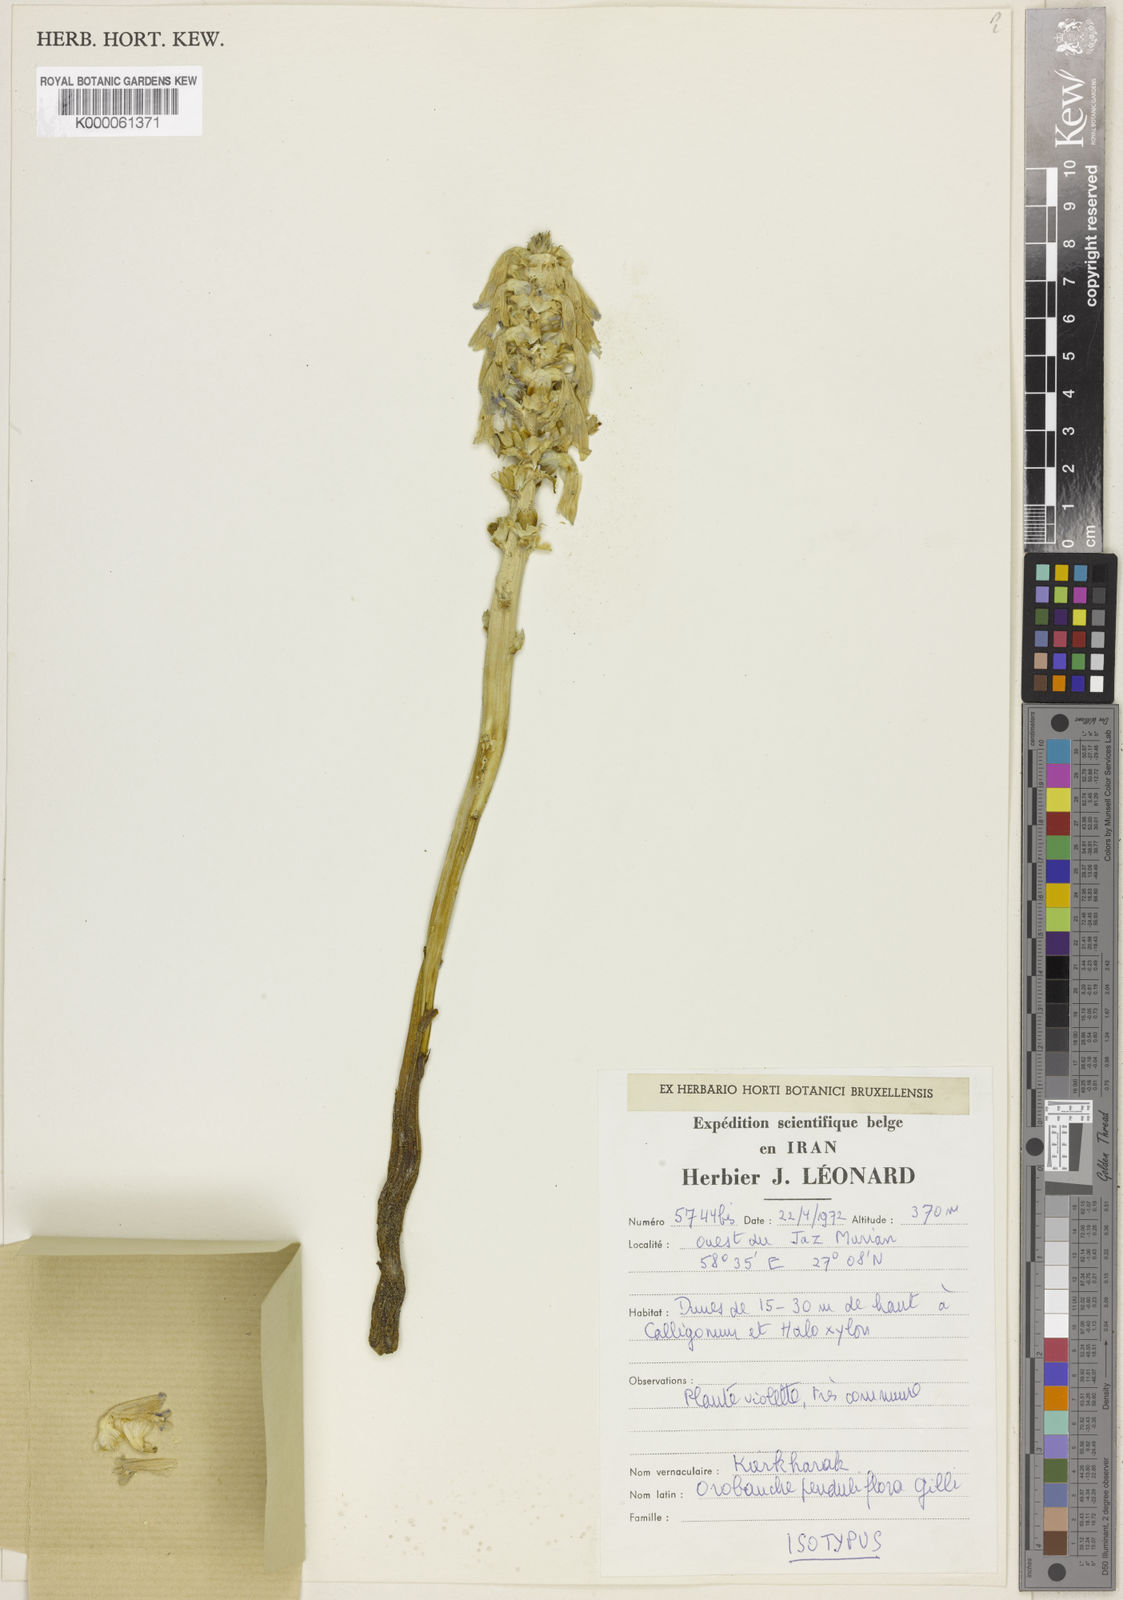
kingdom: Plantae
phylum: Tracheophyta
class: Magnoliopsida
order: Lamiales
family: Orobanchaceae
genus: Phelipanche
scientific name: Phelipanche penduliflora
